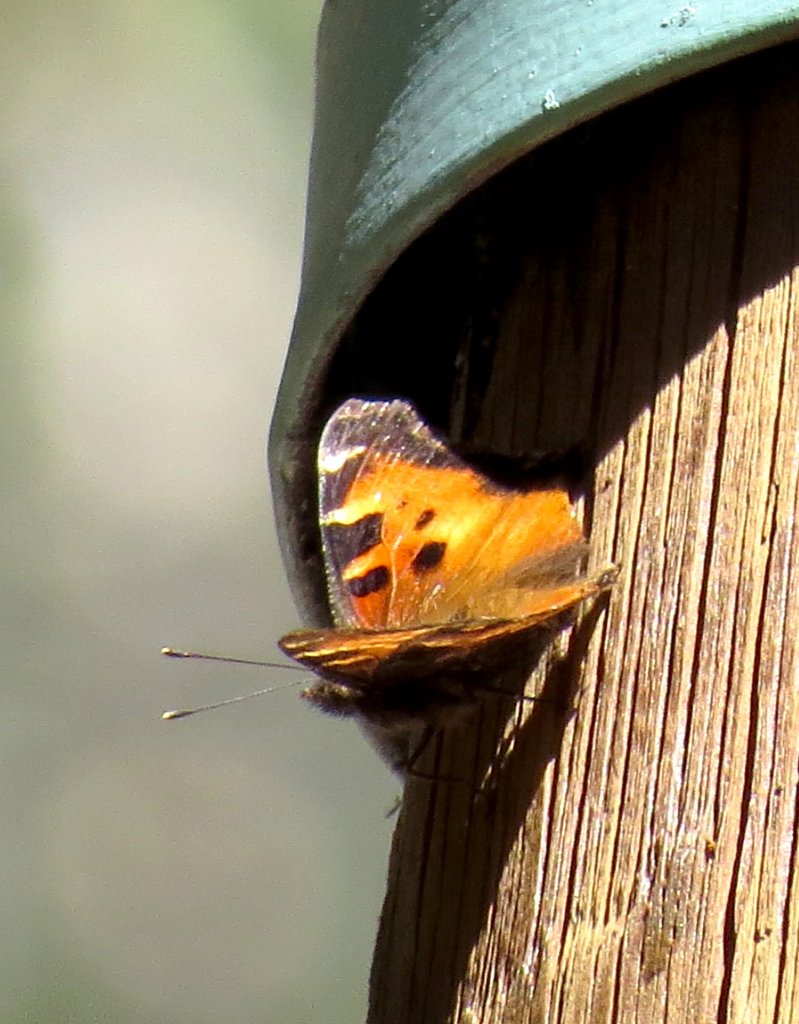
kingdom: Animalia
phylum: Arthropoda
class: Insecta
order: Lepidoptera
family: Nymphalidae
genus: Nymphalis
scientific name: Nymphalis californica
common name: California Tortoiseshell
